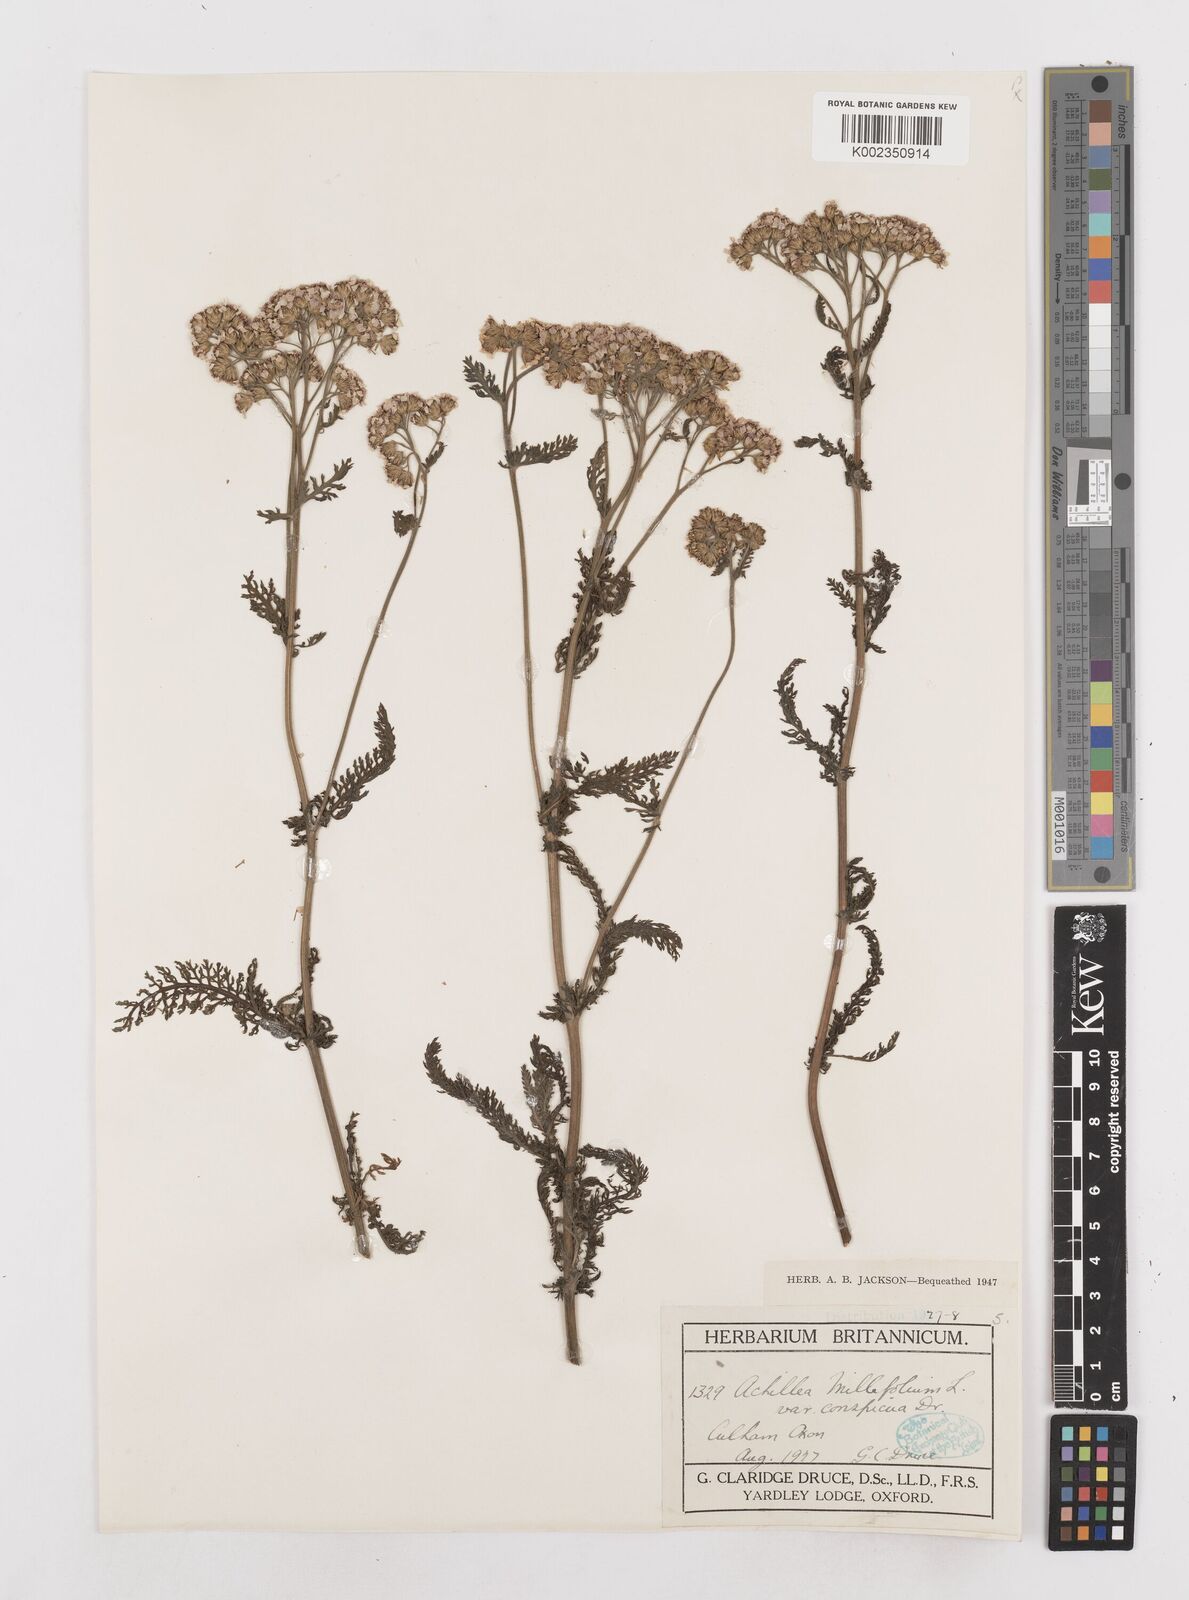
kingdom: Plantae
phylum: Tracheophyta
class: Magnoliopsida
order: Asterales
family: Asteraceae
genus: Achillea
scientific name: Achillea millefolium
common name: Yarrow
